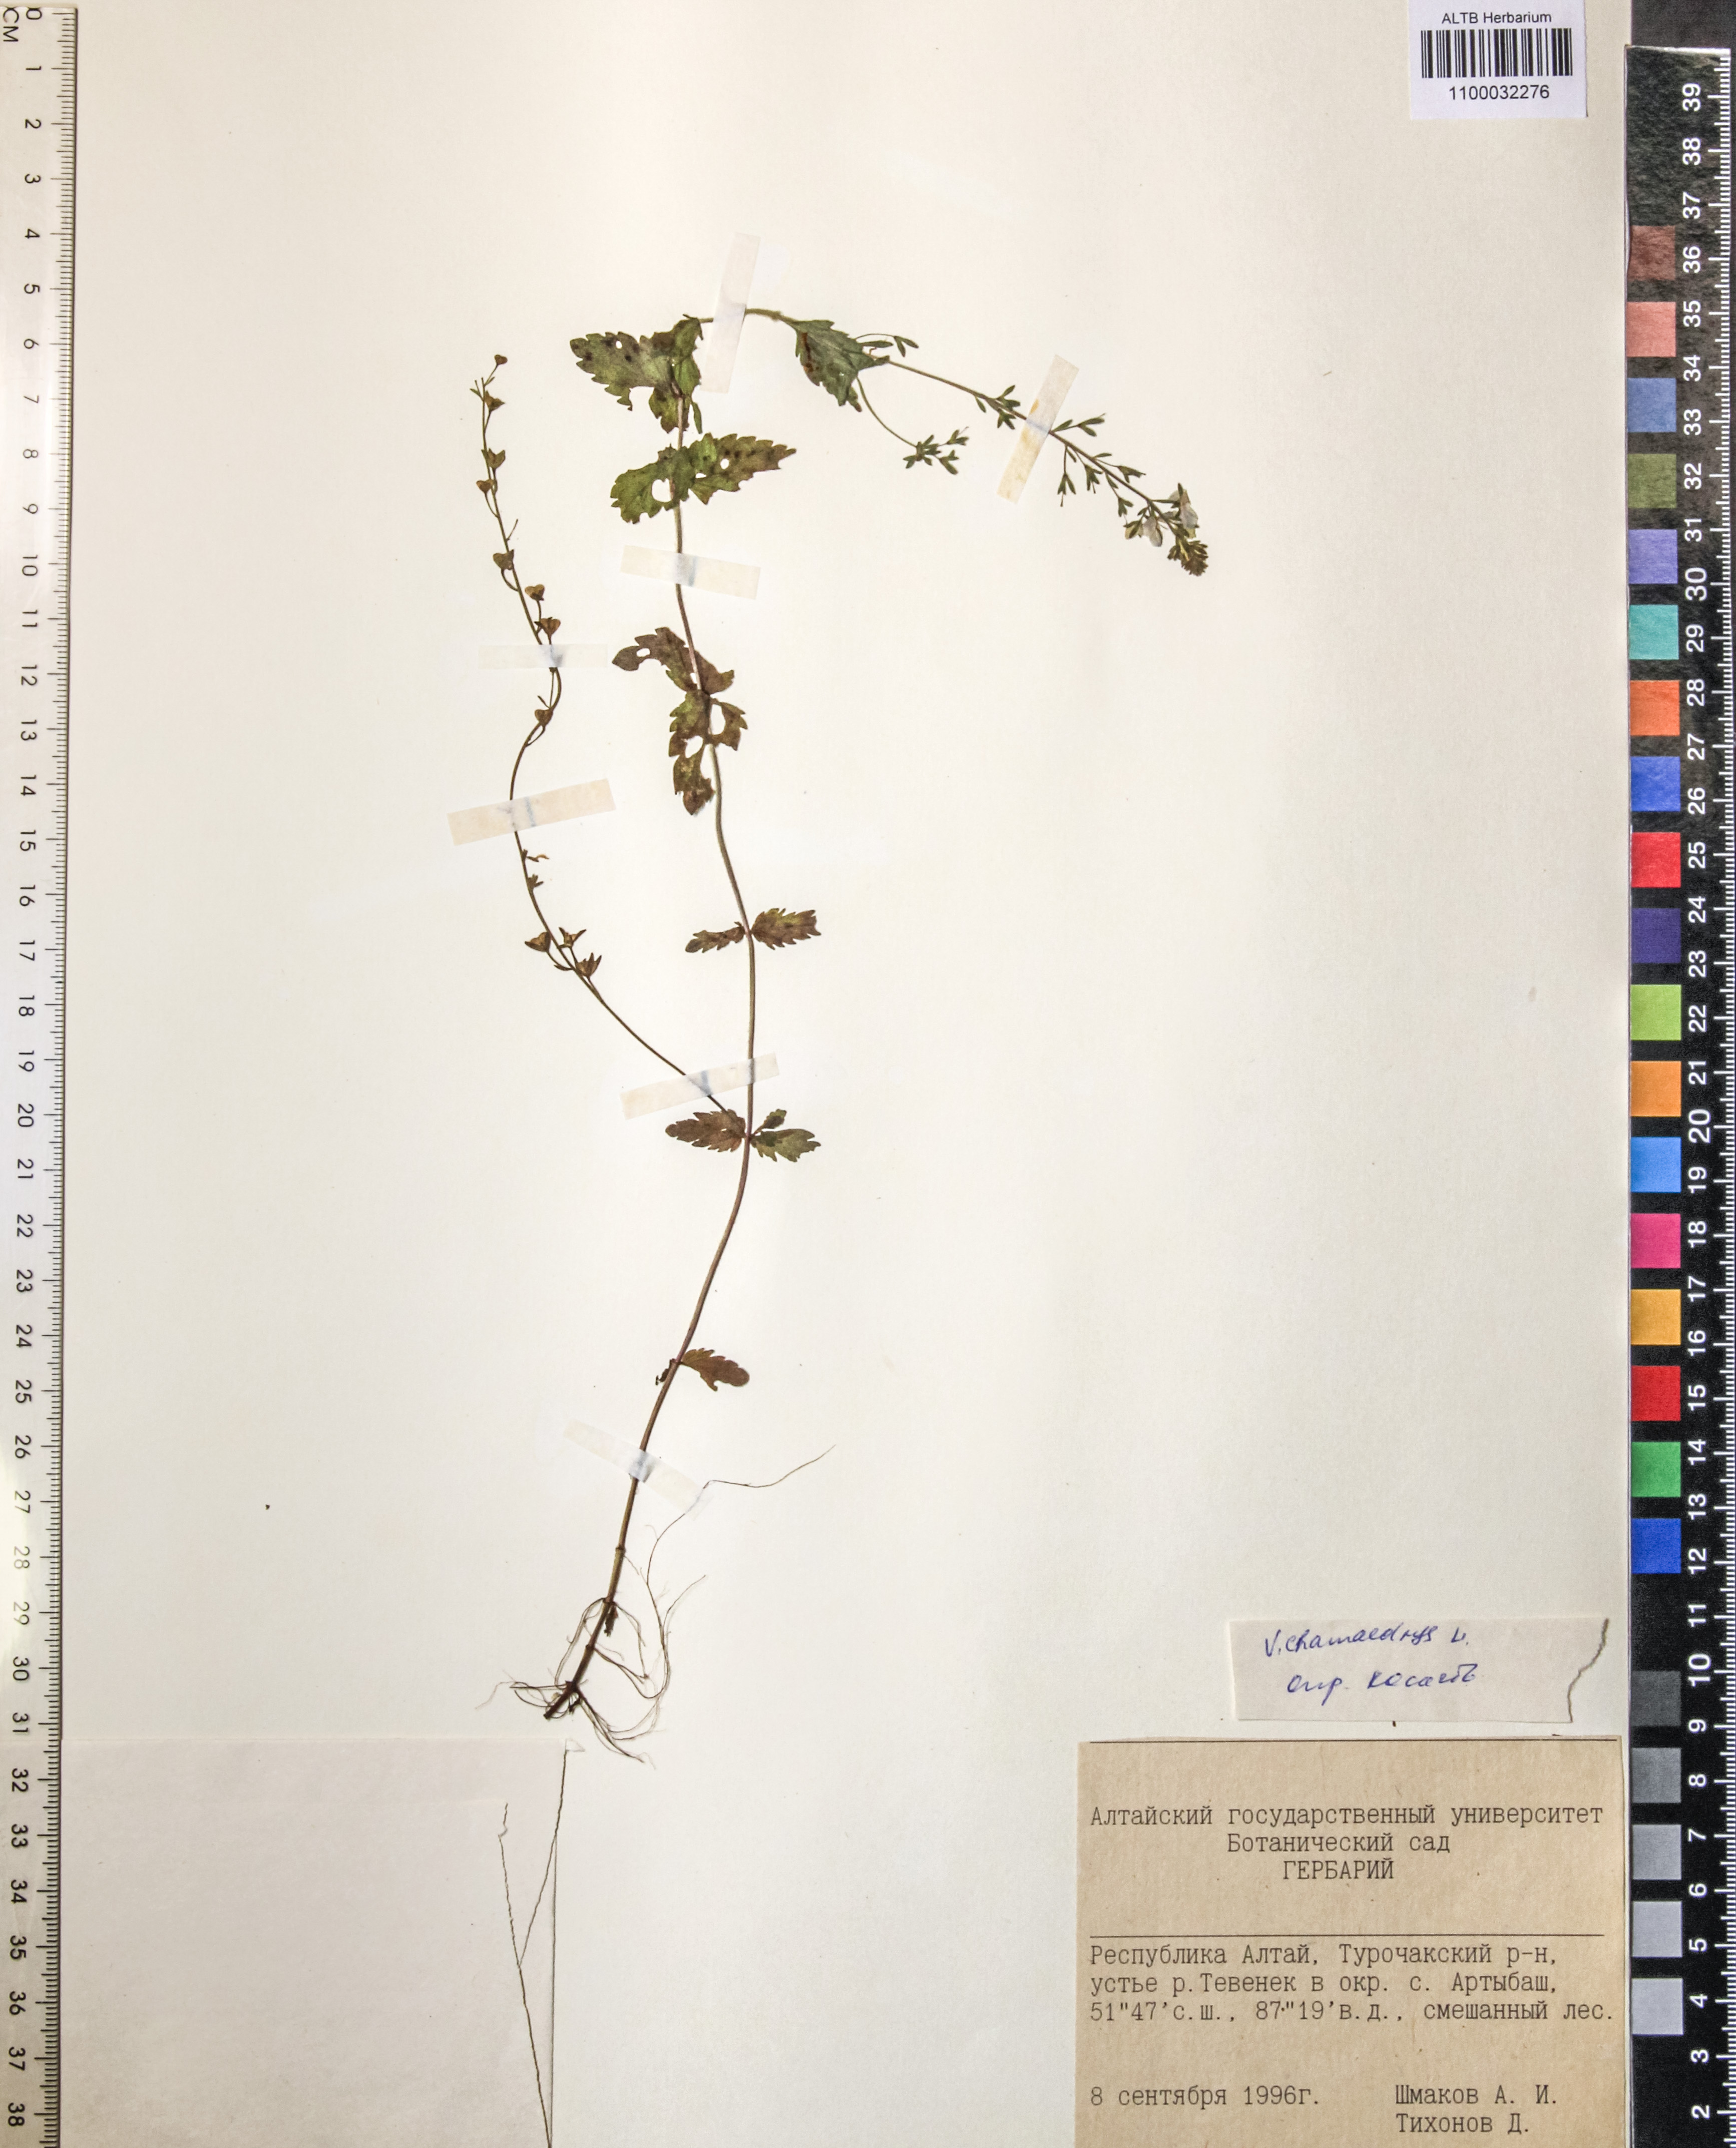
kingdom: Plantae
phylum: Tracheophyta
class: Magnoliopsida
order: Lamiales
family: Plantaginaceae
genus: Veronica
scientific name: Veronica chamaedrys
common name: Germander speedwell
